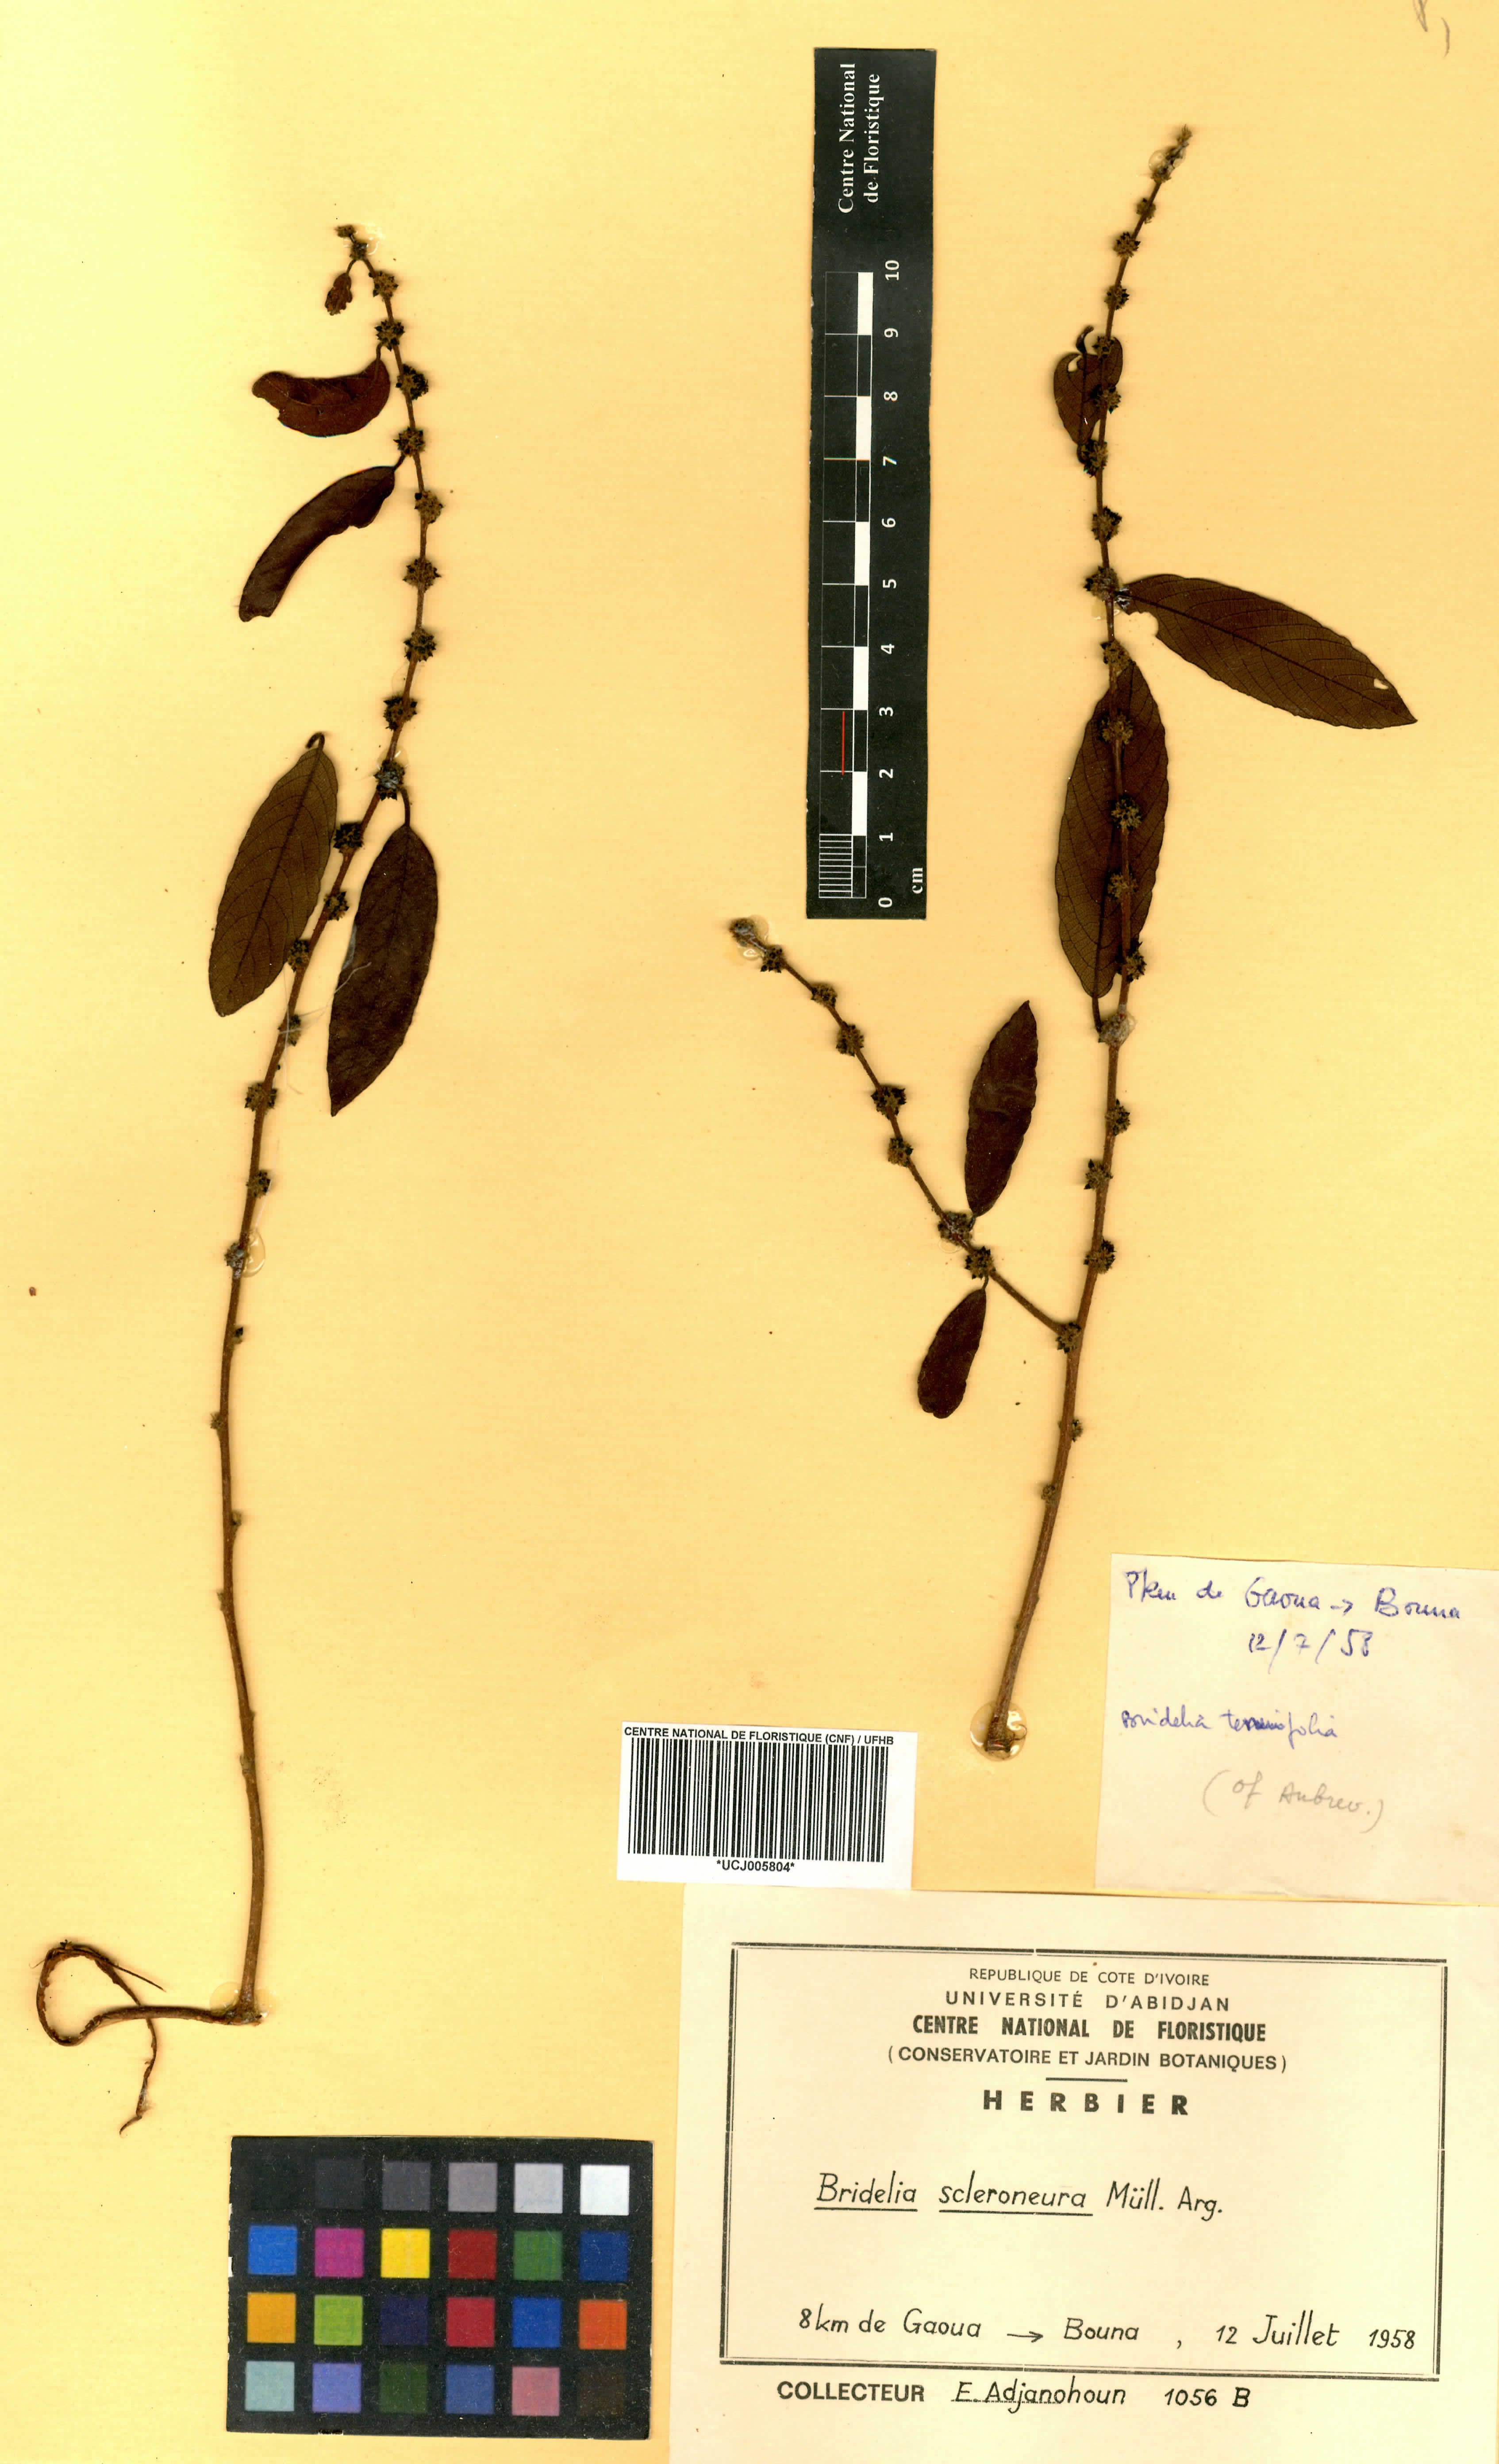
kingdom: Plantae
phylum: Tracheophyta
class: Magnoliopsida
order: Malpighiales
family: Phyllanthaceae
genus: Bridelia
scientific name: Bridelia scleroneura
